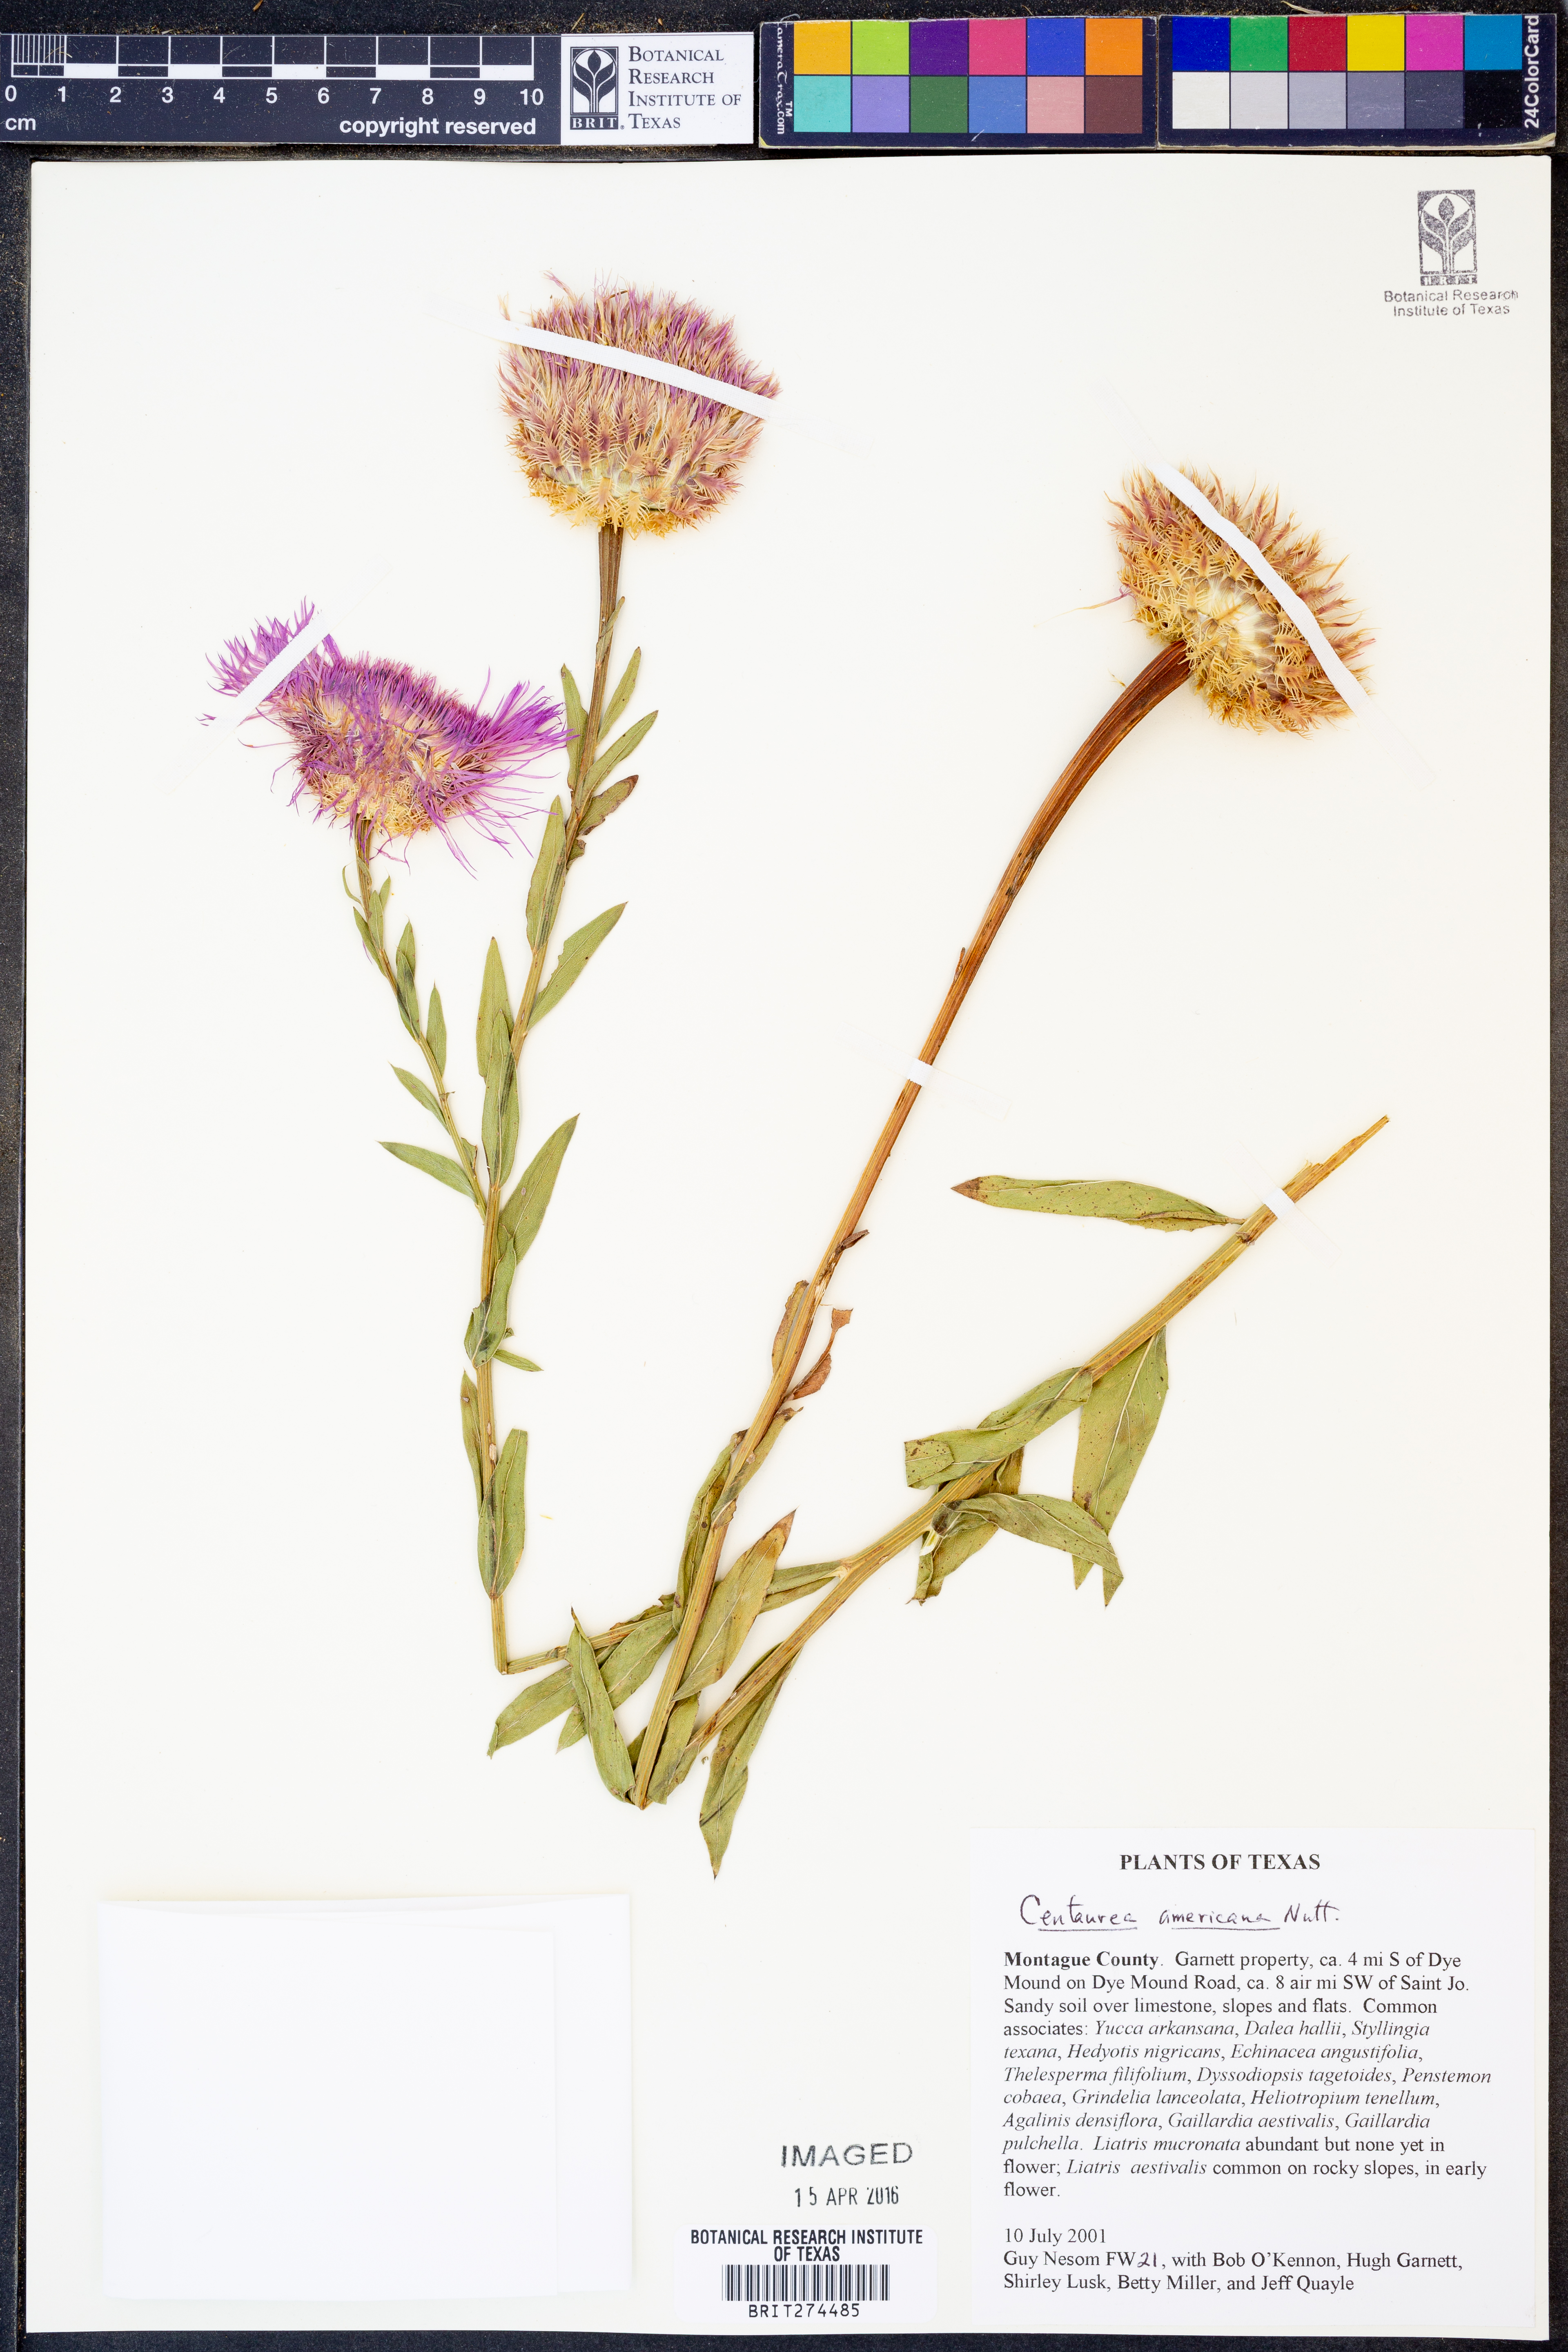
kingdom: Plantae
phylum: Tracheophyta
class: Magnoliopsida
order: Asterales
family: Asteraceae
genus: Plectocephalus
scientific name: Plectocephalus americanus
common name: American basket-flower
